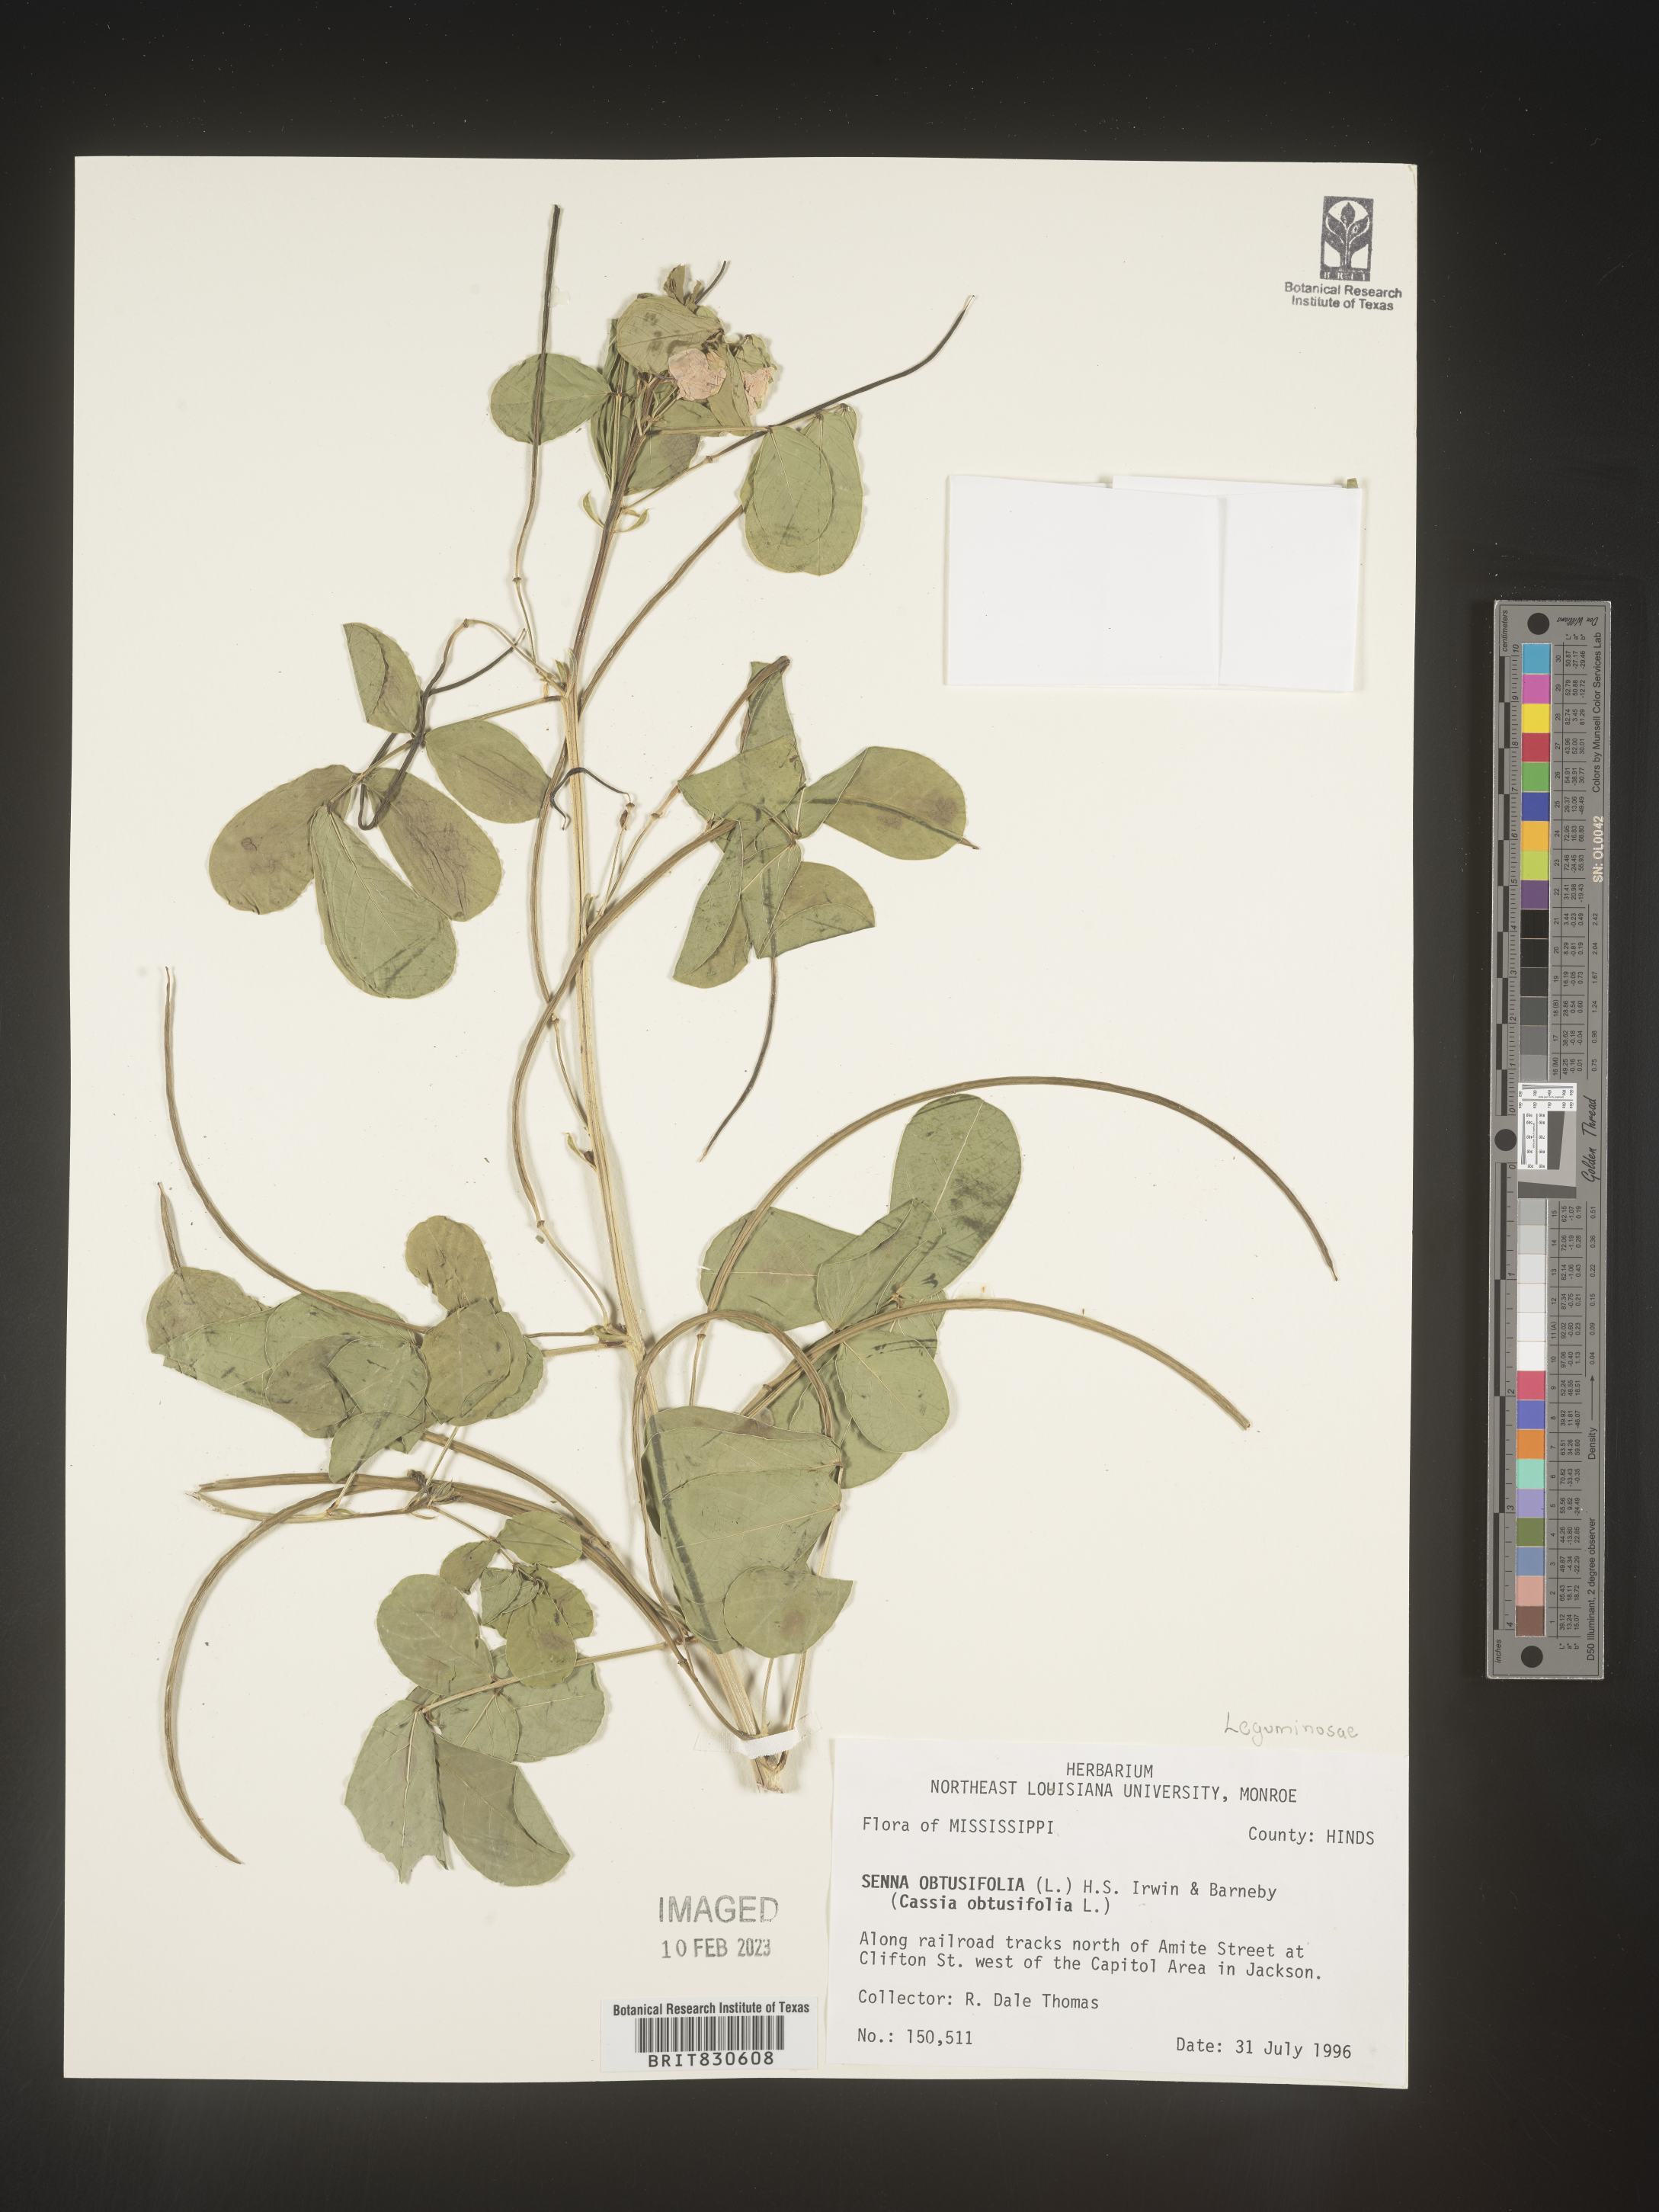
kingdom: Plantae
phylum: Tracheophyta
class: Magnoliopsida
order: Fabales
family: Fabaceae
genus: Senna
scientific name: Senna obtusifolia
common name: Java-bean
